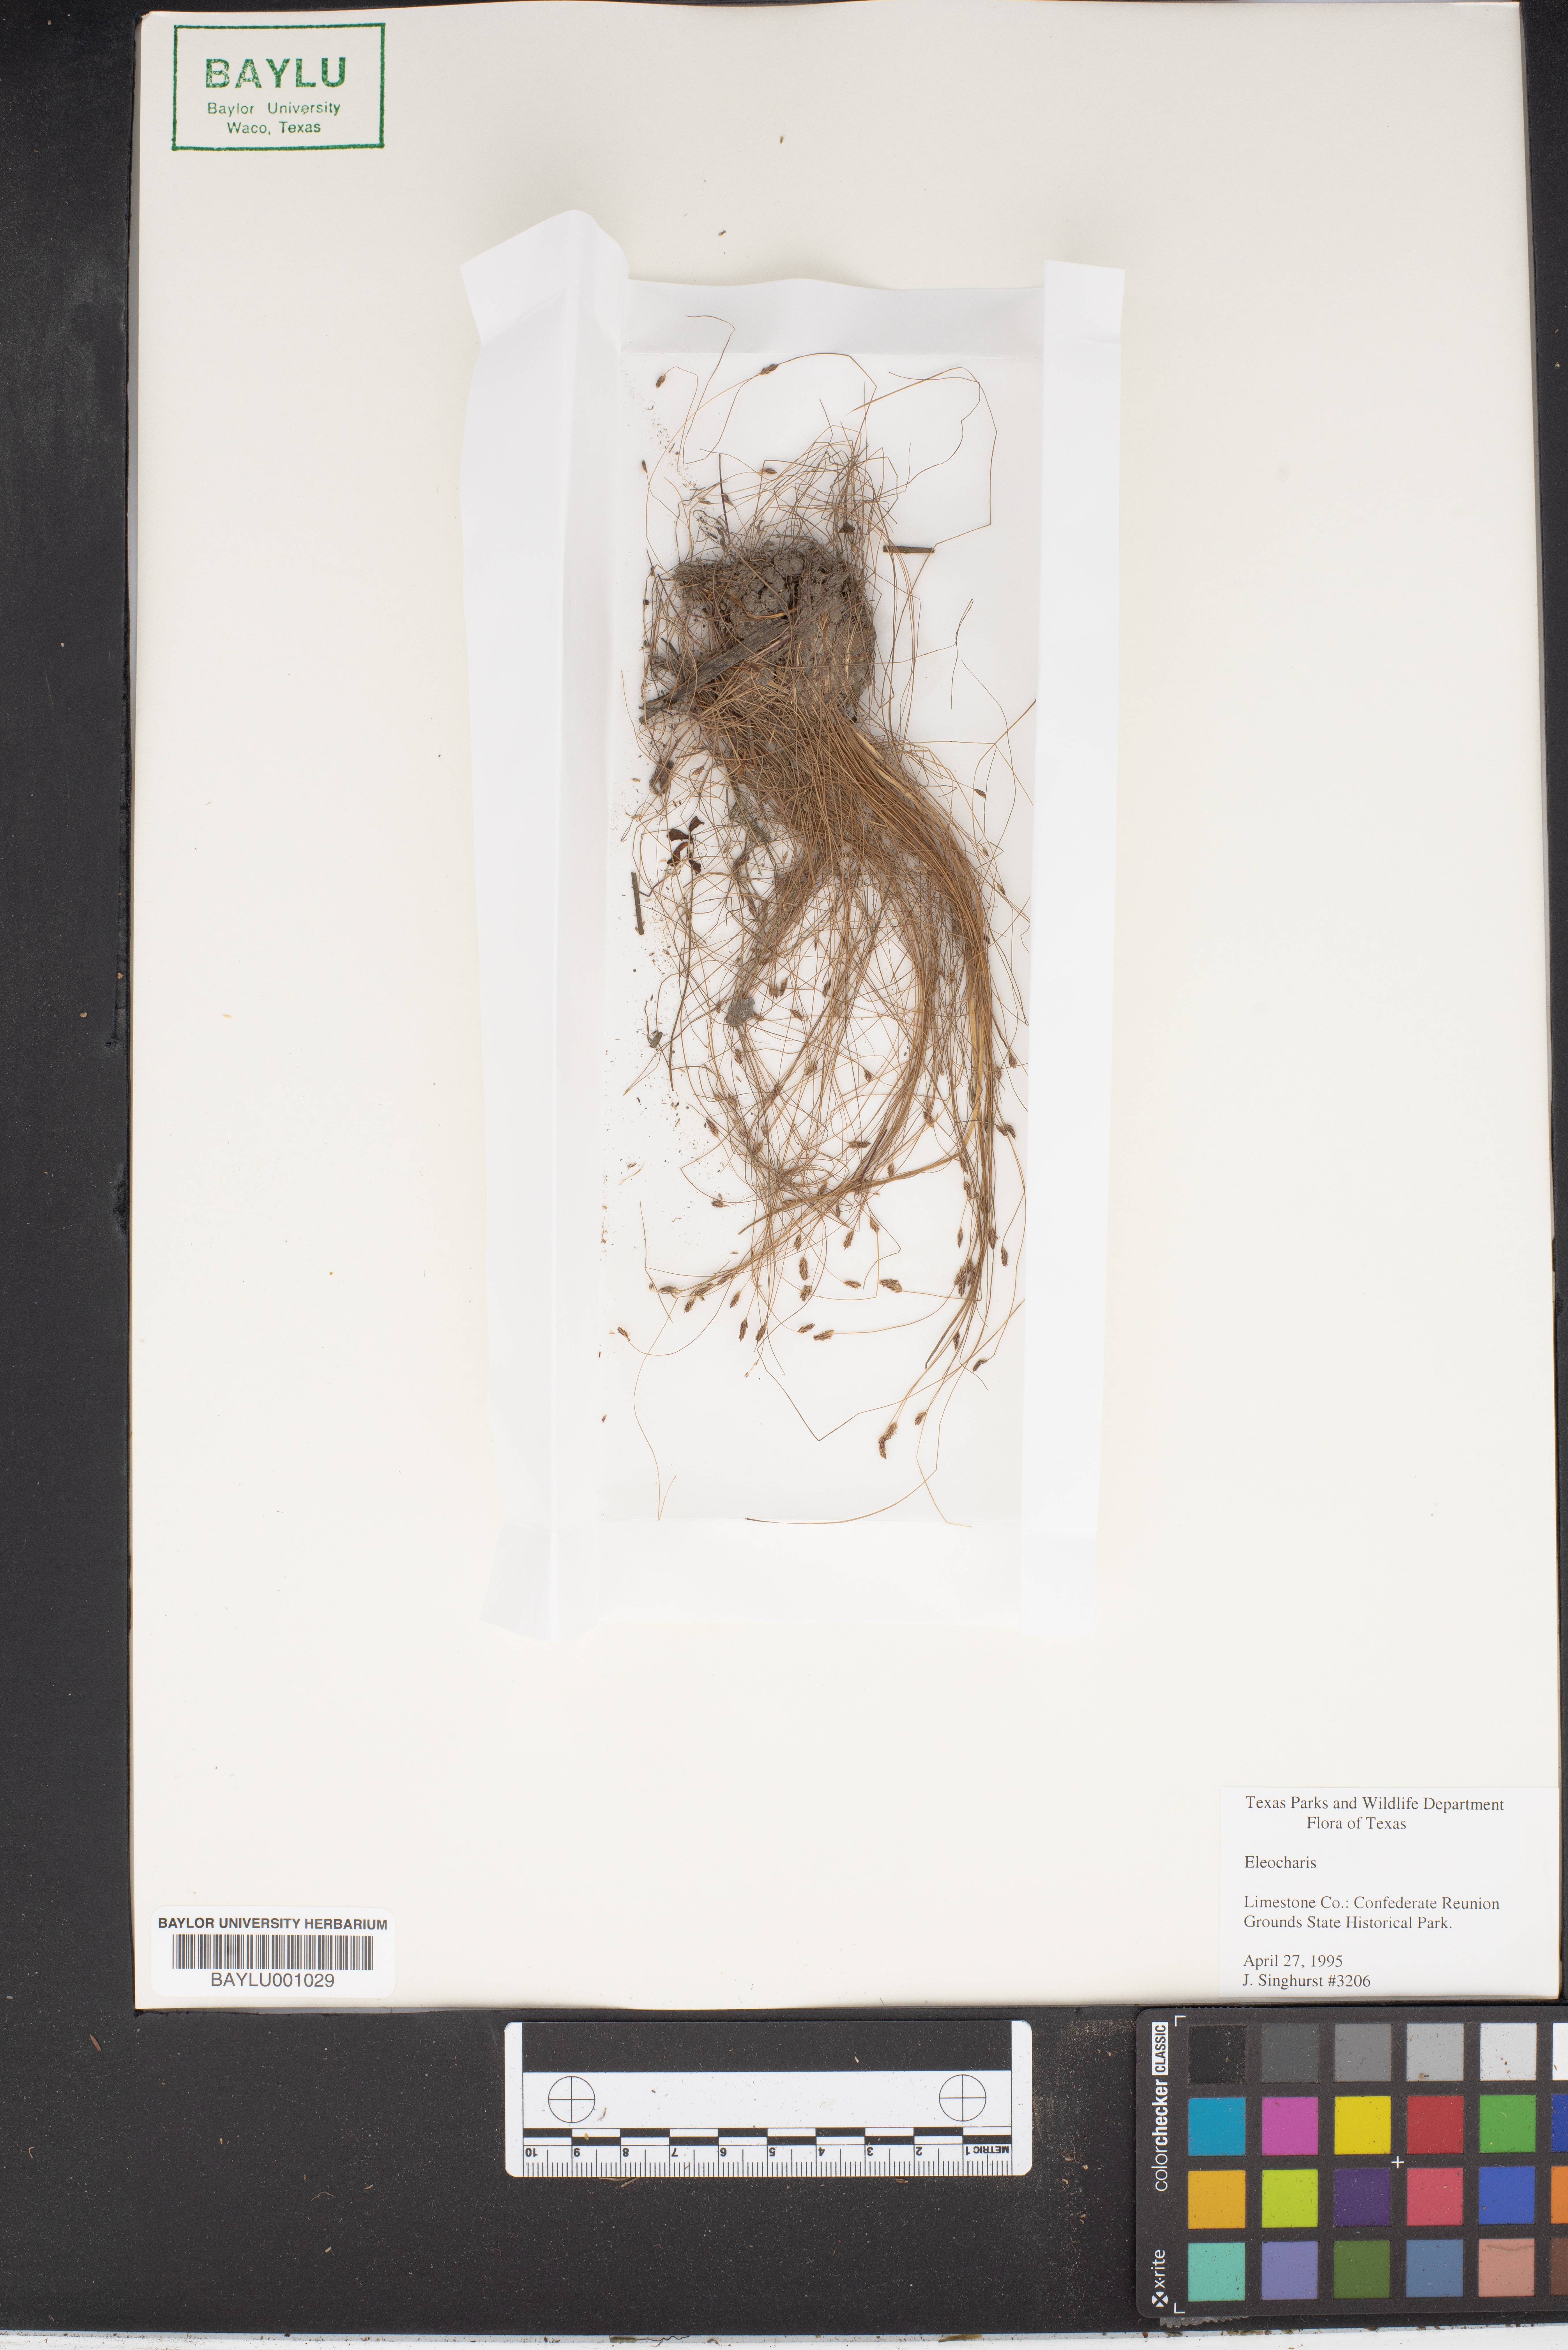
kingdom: Plantae
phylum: Tracheophyta
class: Liliopsida
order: Poales
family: Cyperaceae
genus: Eleocharis
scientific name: Eleocharis
